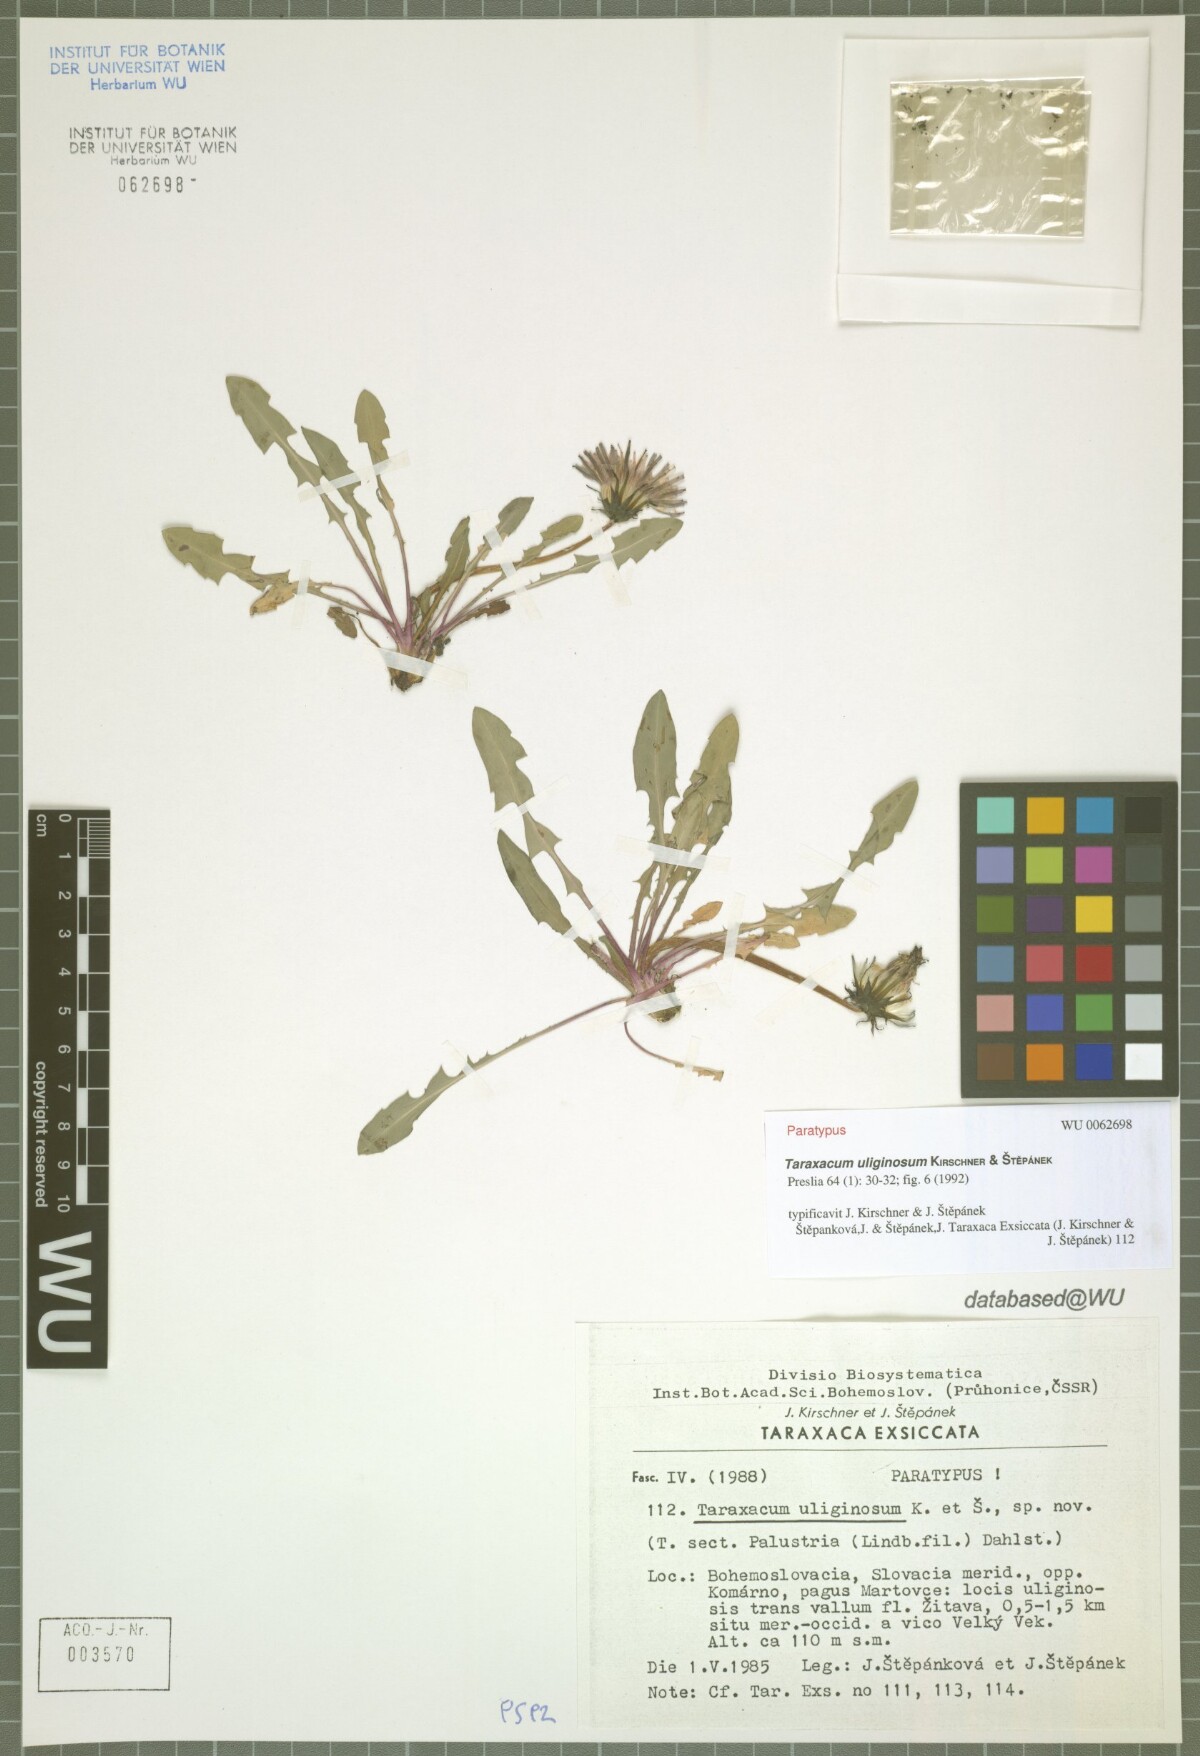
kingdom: Plantae
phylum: Tracheophyta
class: Magnoliopsida
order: Asterales
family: Asteraceae
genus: Taraxacum
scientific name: Taraxacum uliginosum
